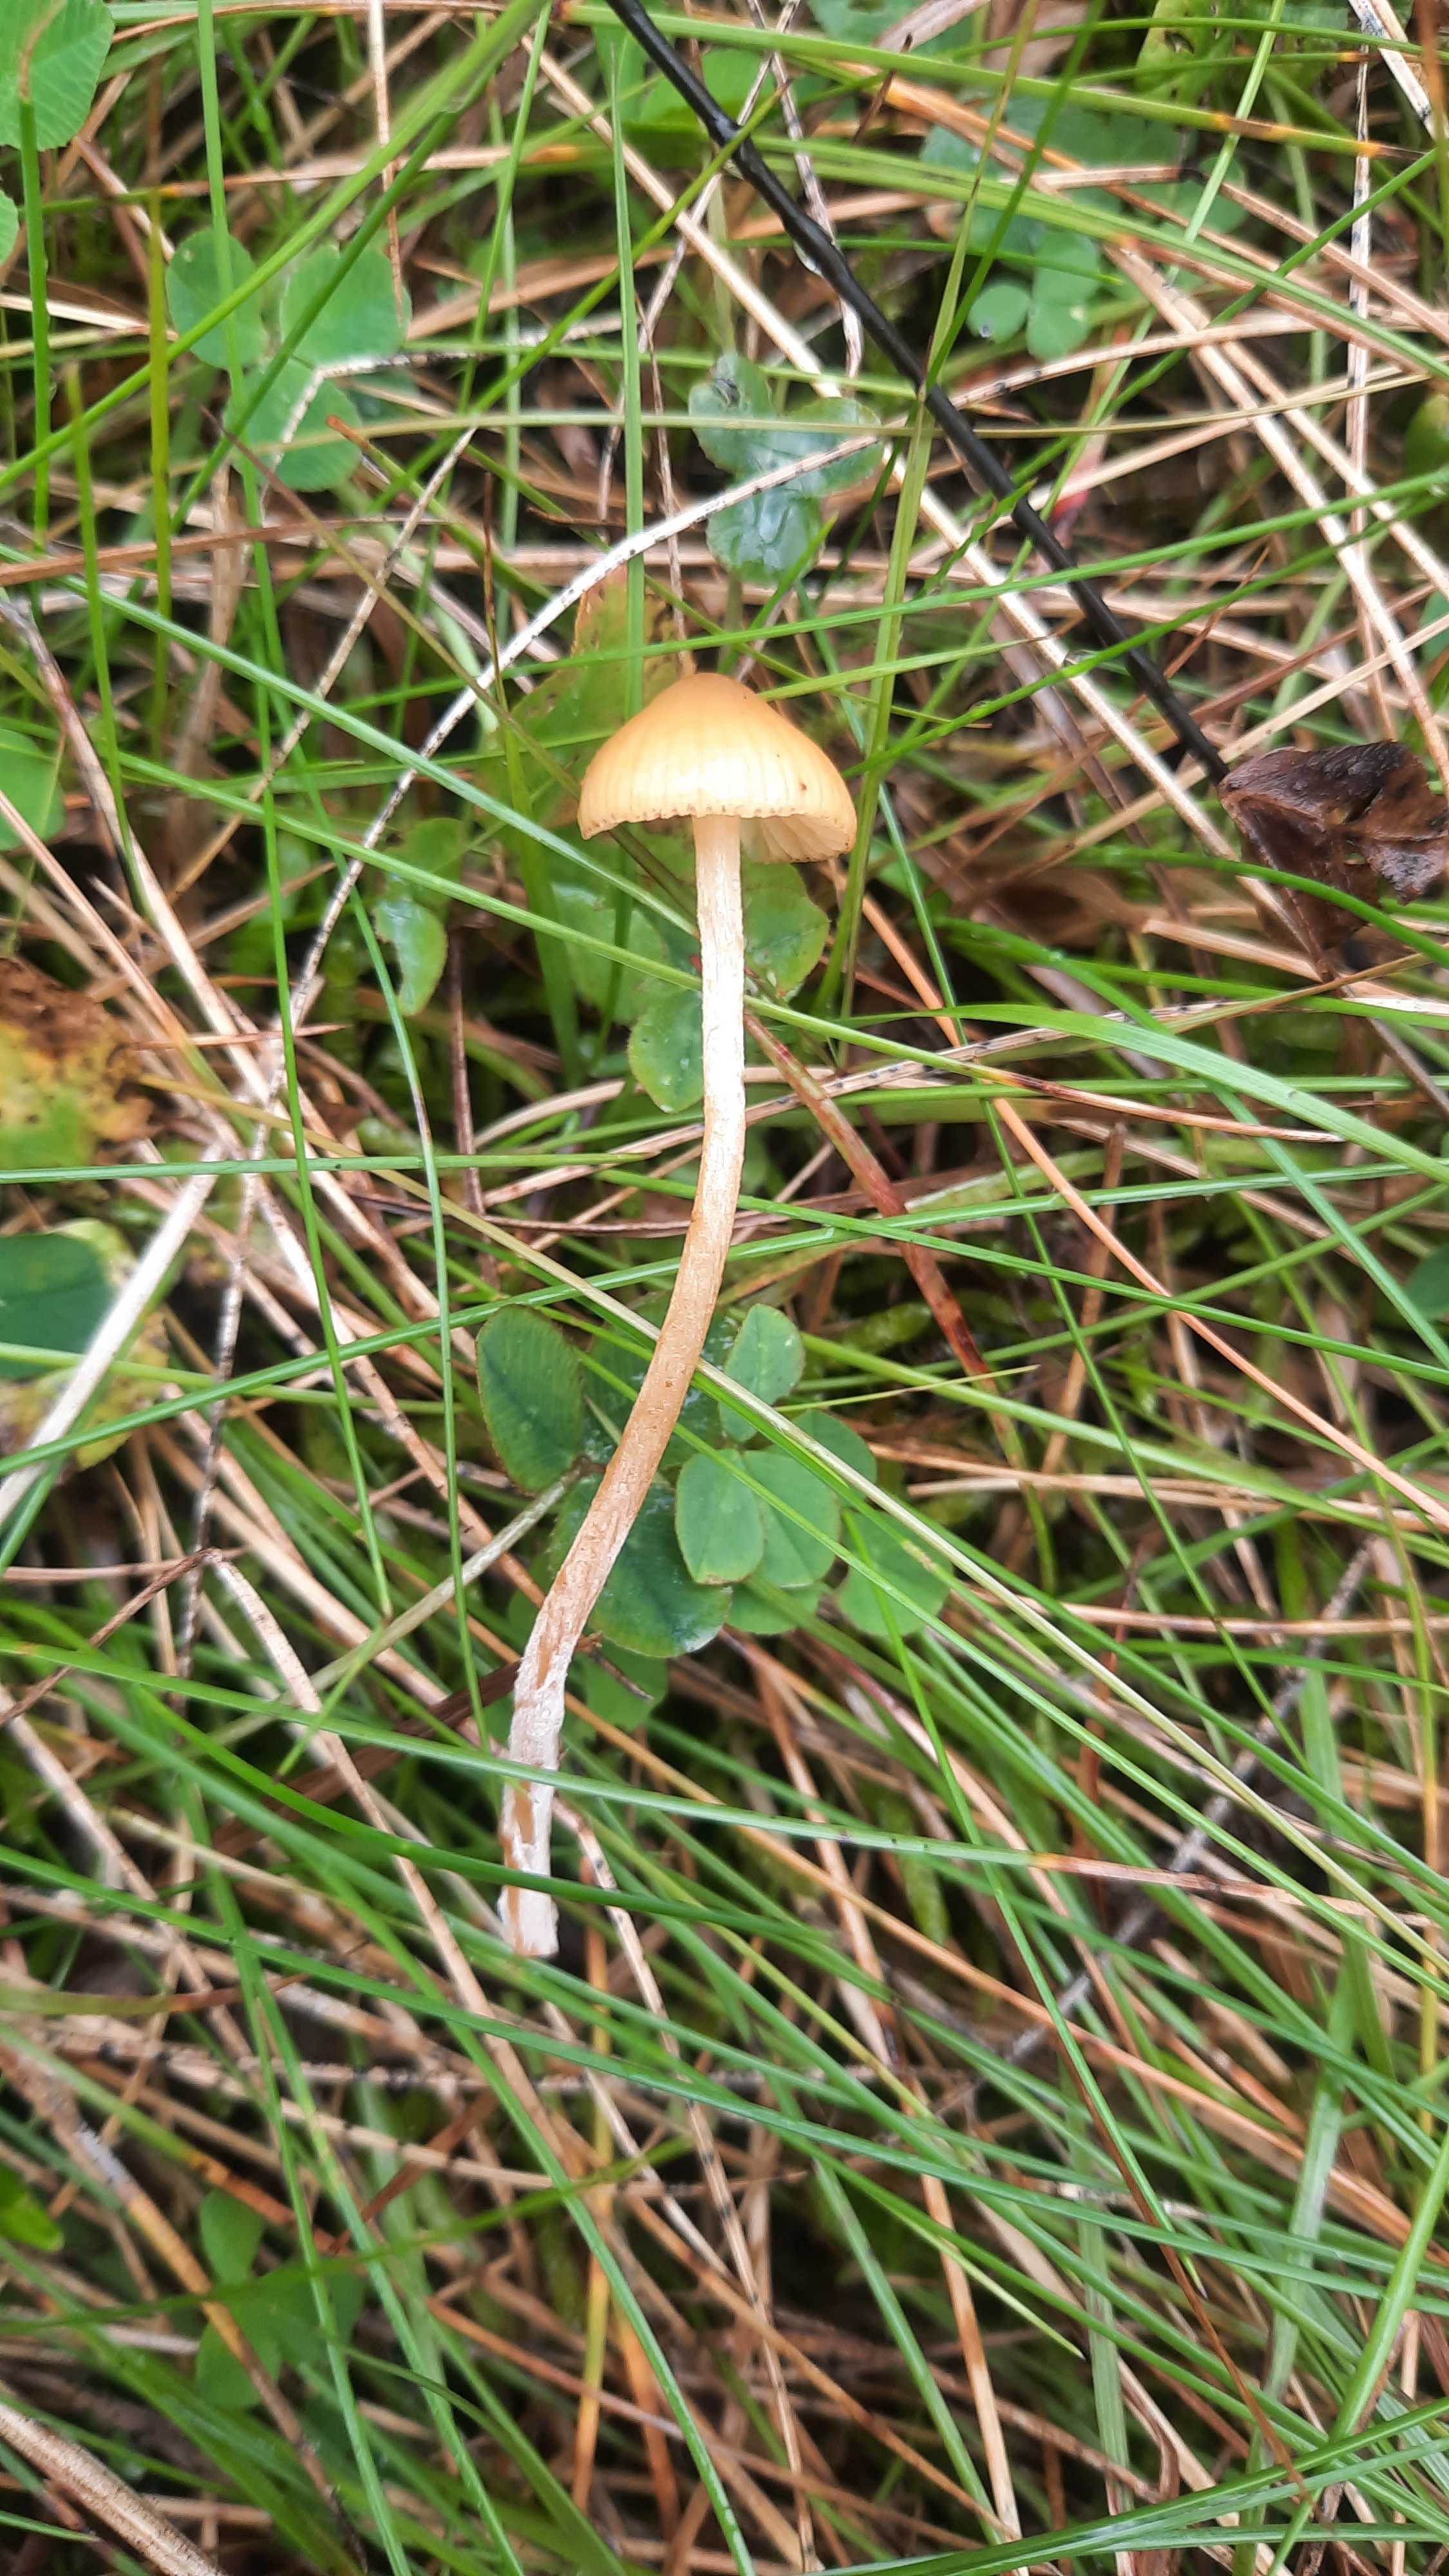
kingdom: Fungi
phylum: Basidiomycota
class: Agaricomycetes
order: Agaricales
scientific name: Agaricales
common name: champignonordenen
